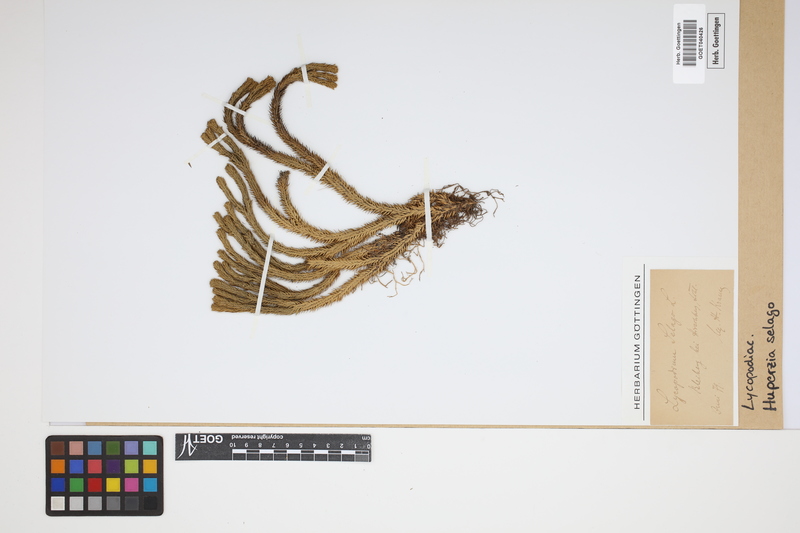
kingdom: Plantae
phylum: Tracheophyta
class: Lycopodiopsida
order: Lycopodiales
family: Lycopodiaceae
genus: Huperzia
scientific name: Huperzia selago
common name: Northern firmoss
